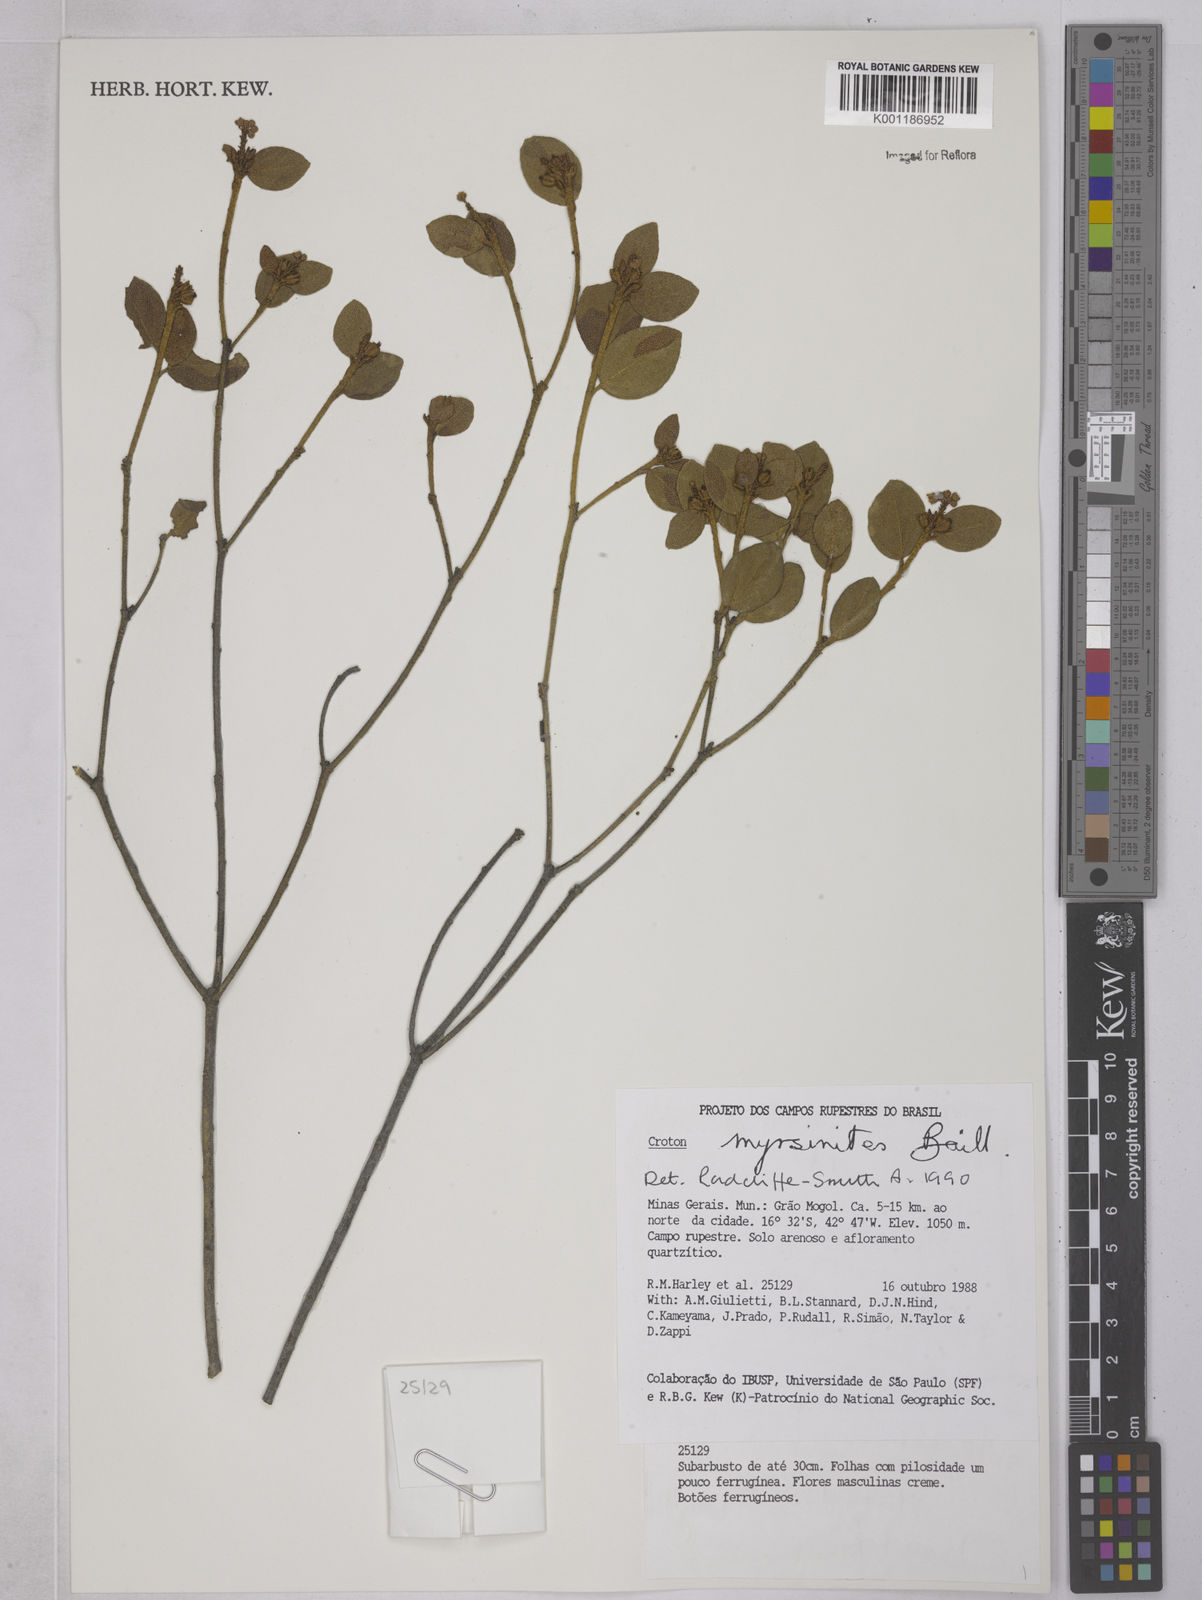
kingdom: Plantae
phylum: Tracheophyta
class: Magnoliopsida
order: Malpighiales
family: Euphorbiaceae
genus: Croton
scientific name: Croton myrsinites
